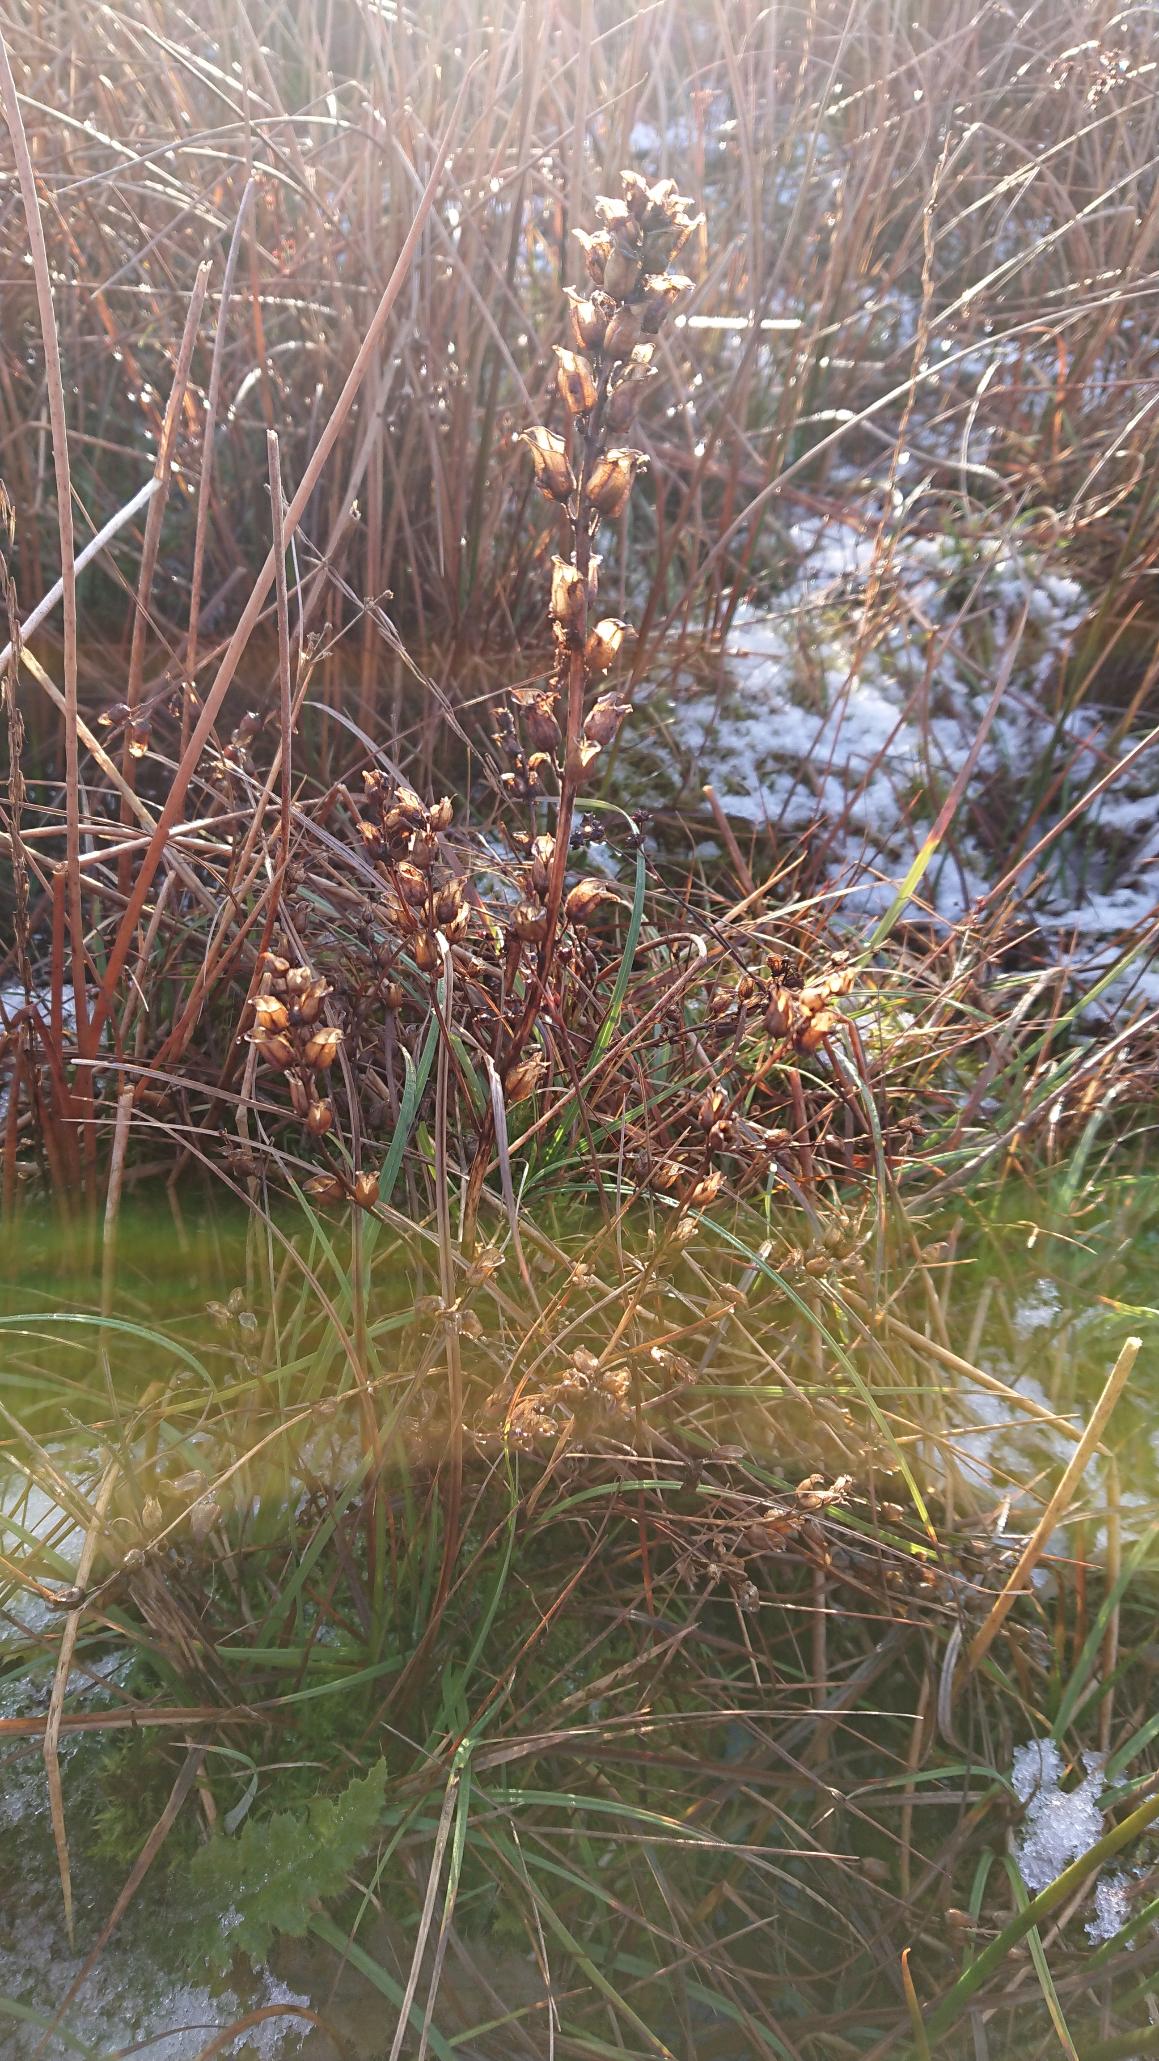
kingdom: Plantae
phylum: Tracheophyta
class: Magnoliopsida
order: Lamiales
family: Orobanchaceae
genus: Pedicularis
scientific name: Pedicularis palustris
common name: Eng-troldurt
